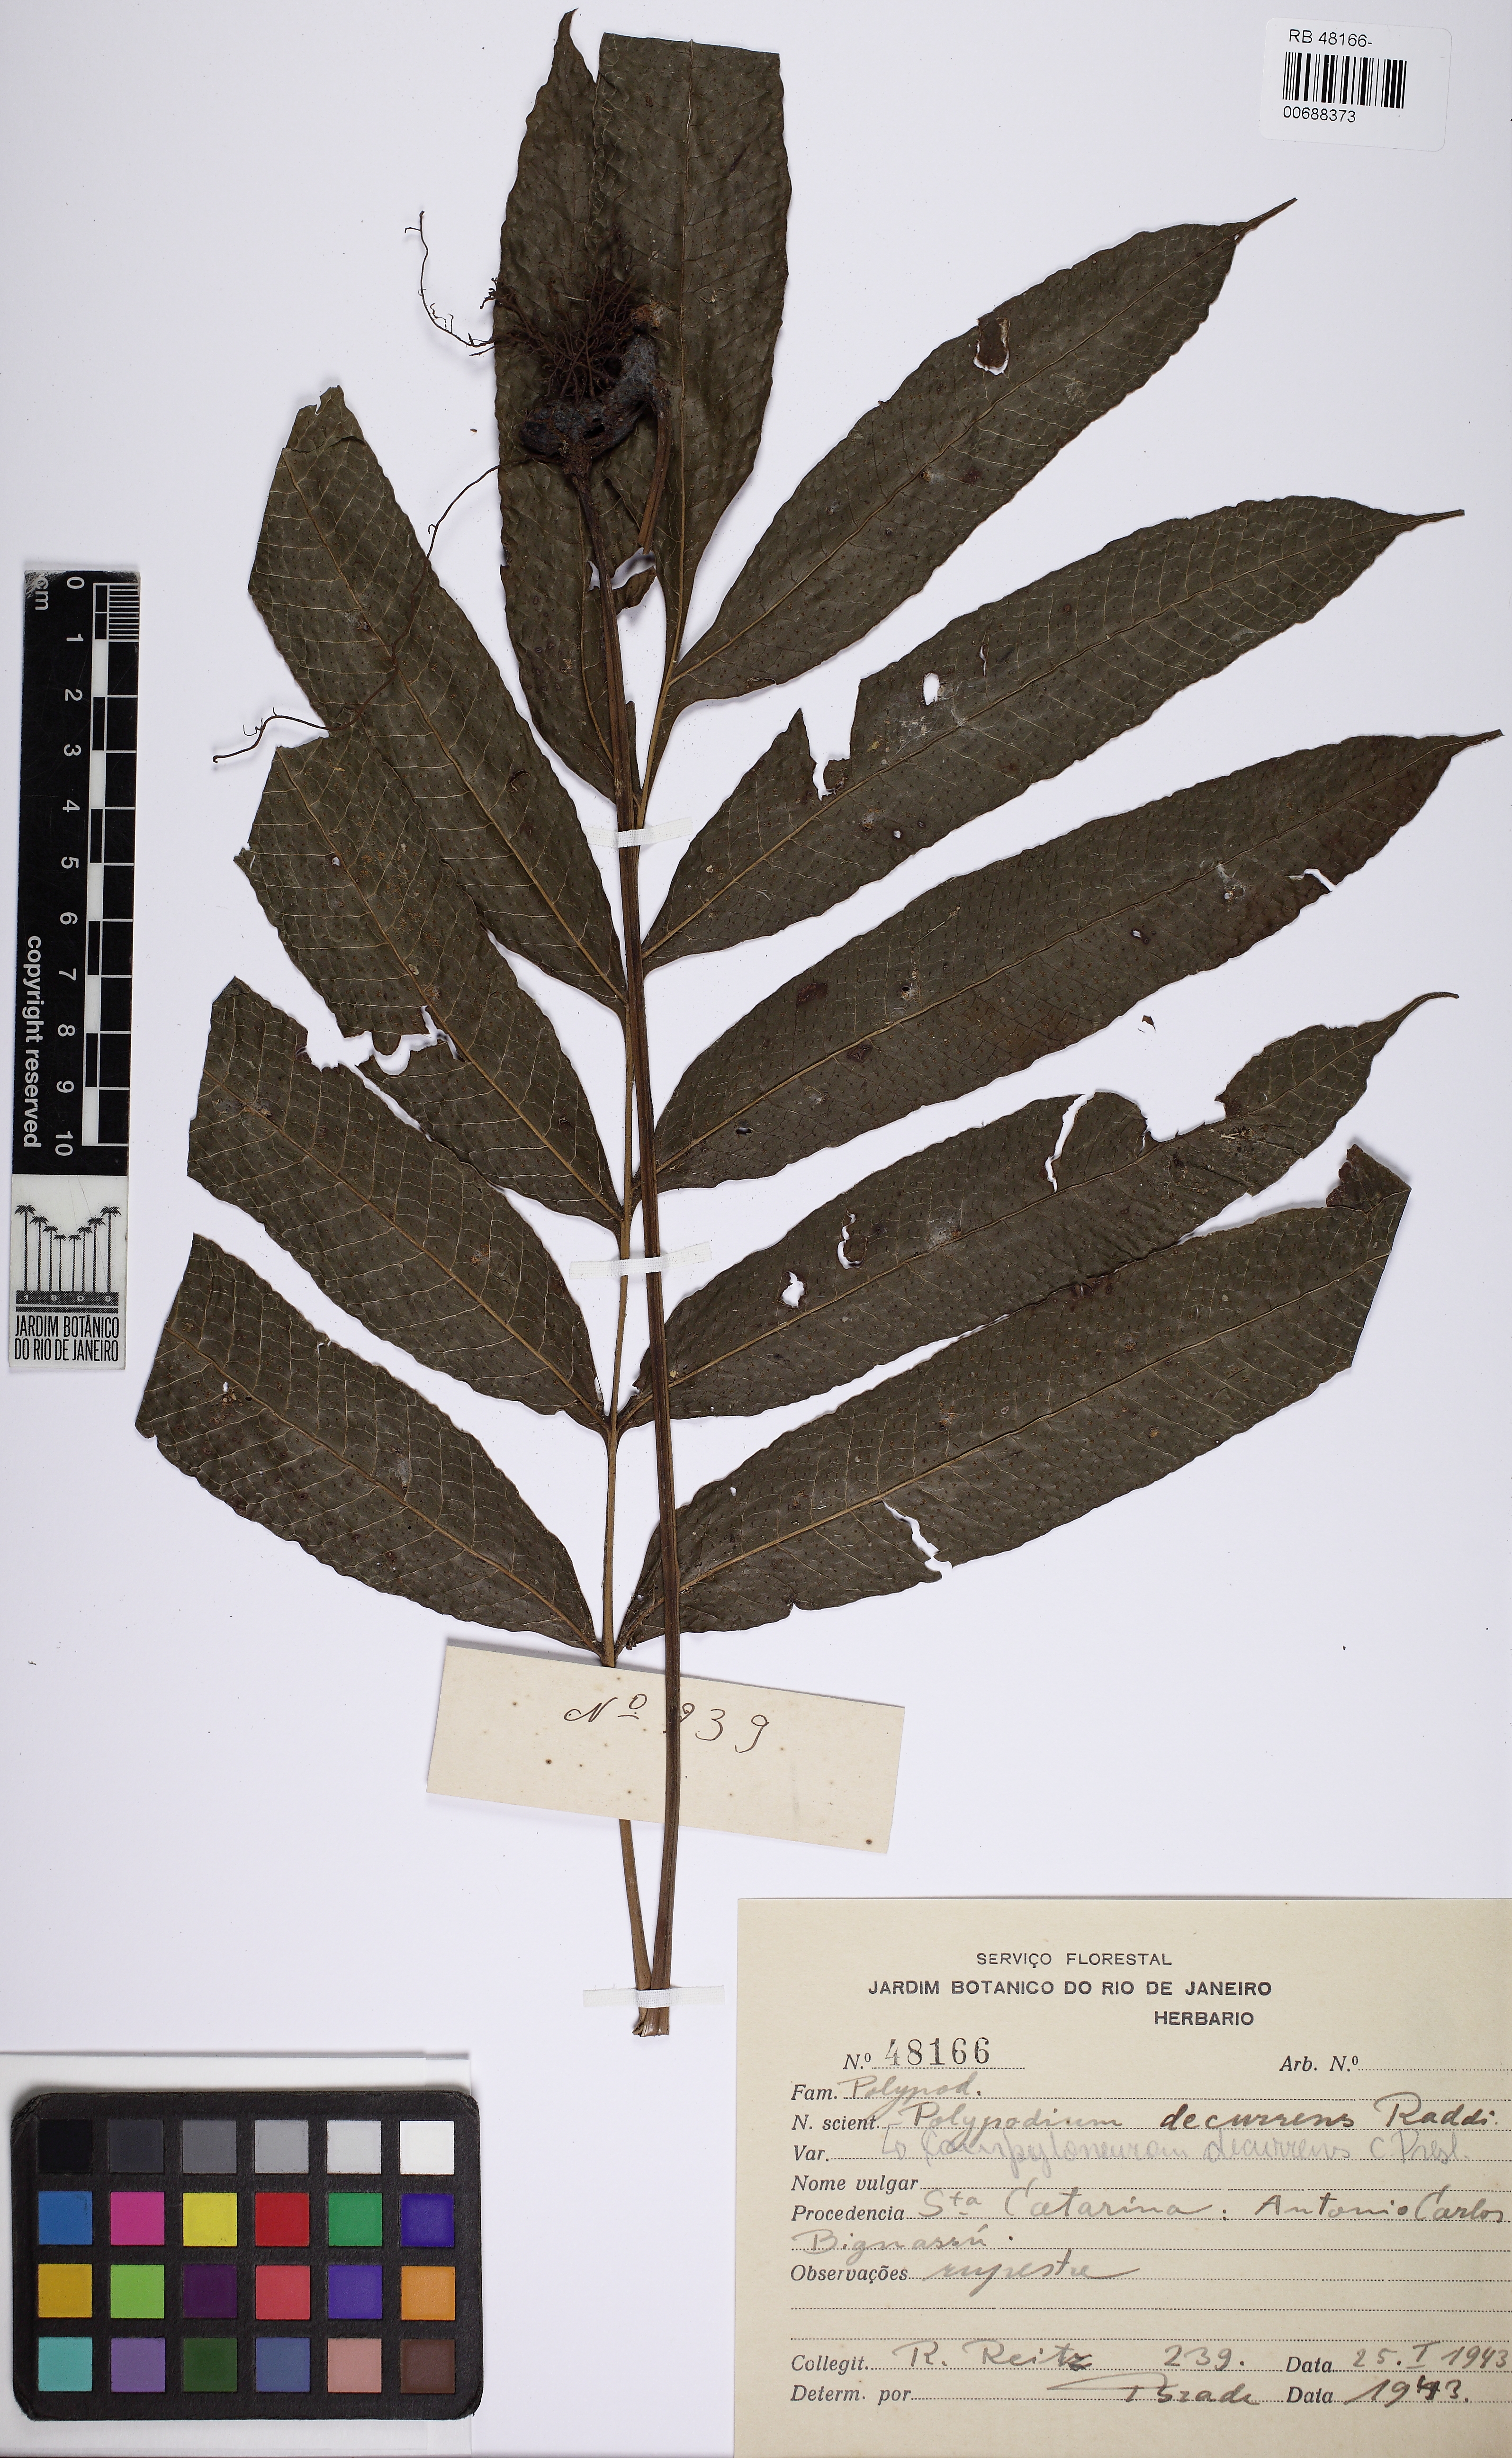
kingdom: Plantae
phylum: Tracheophyta
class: Polypodiopsida
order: Polypodiales
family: Polypodiaceae
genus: Campyloneurum
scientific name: Campyloneurum decurrens
